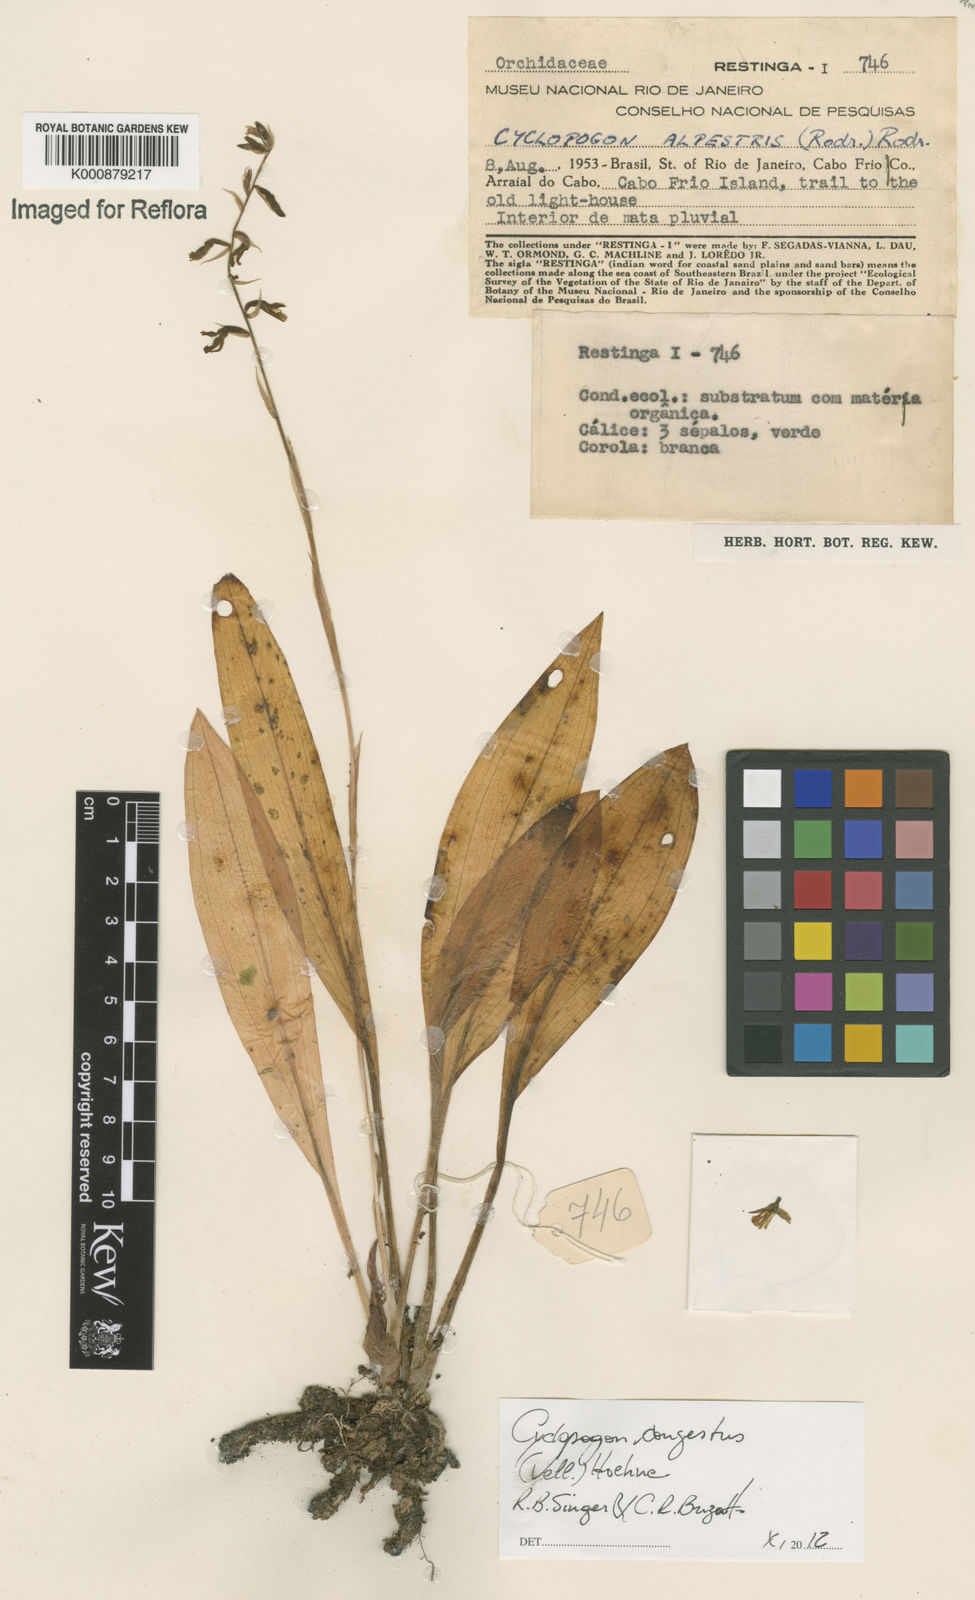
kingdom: Plantae
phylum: Tracheophyta
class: Liliopsida
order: Asparagales
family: Orchidaceae
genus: Cyclopogon
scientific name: Cyclopogon congestus
